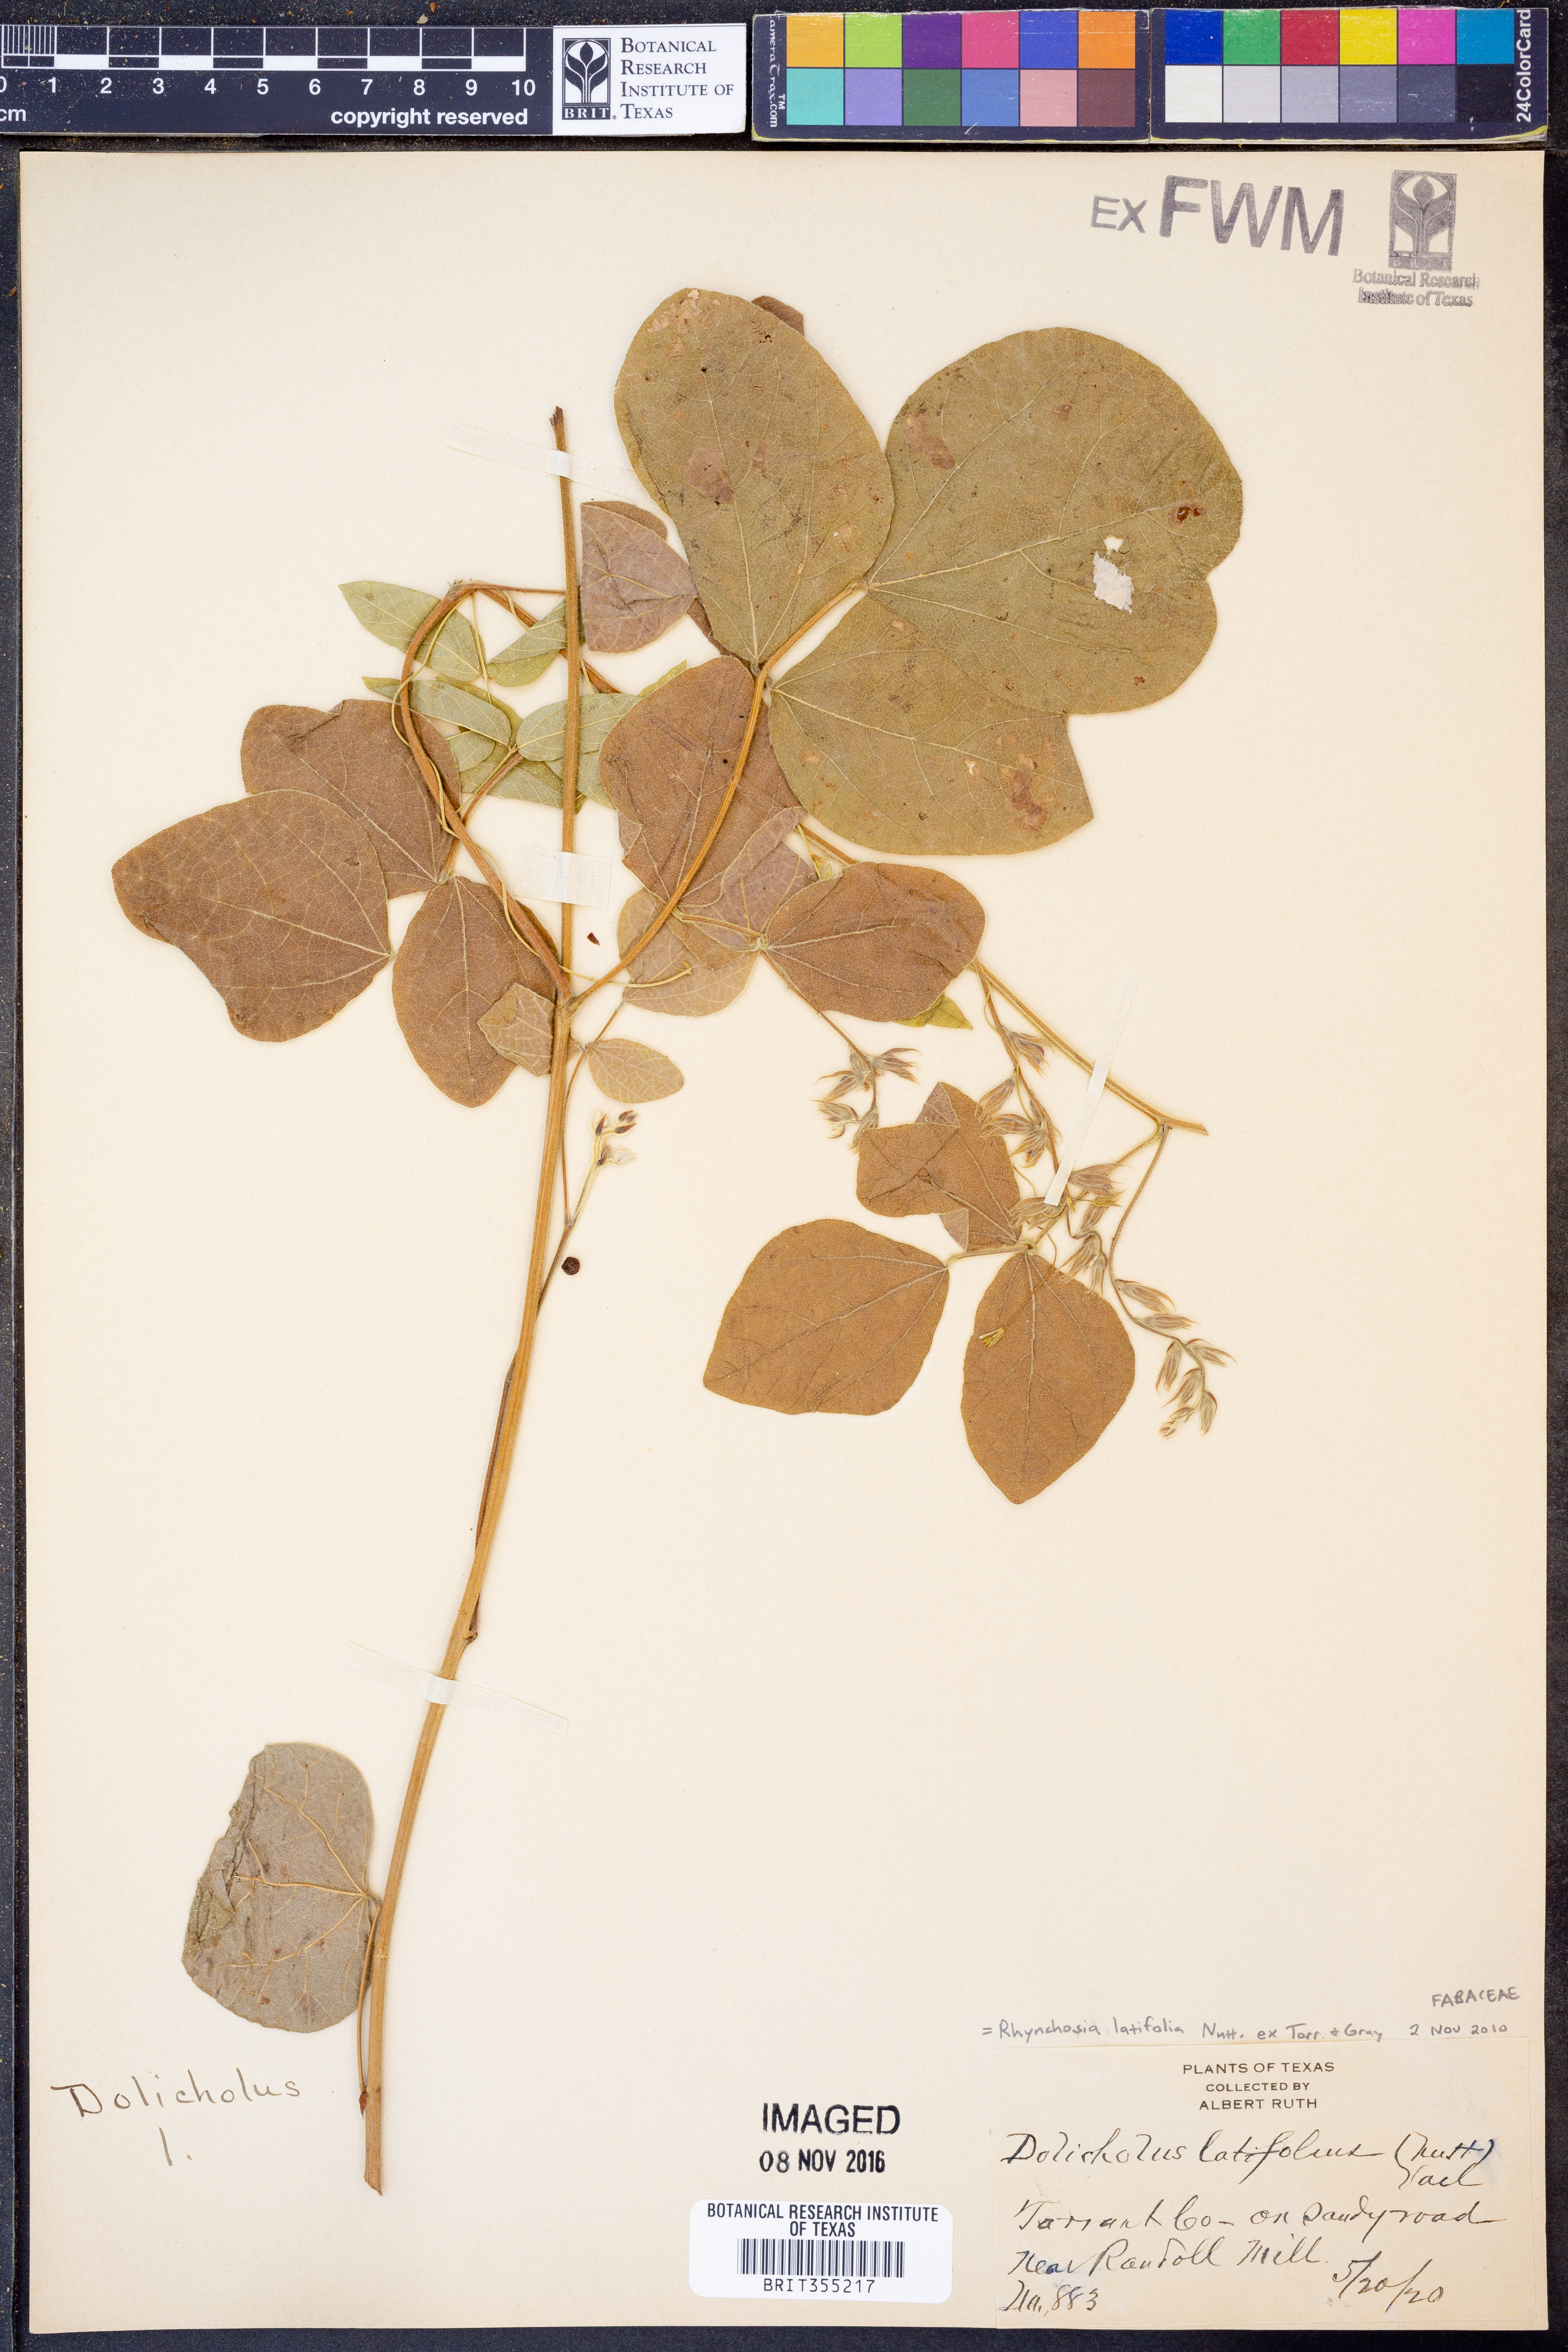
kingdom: Plantae
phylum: Tracheophyta
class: Magnoliopsida
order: Fabales
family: Fabaceae
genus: Rhynchosia
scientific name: Rhynchosia latifolia
